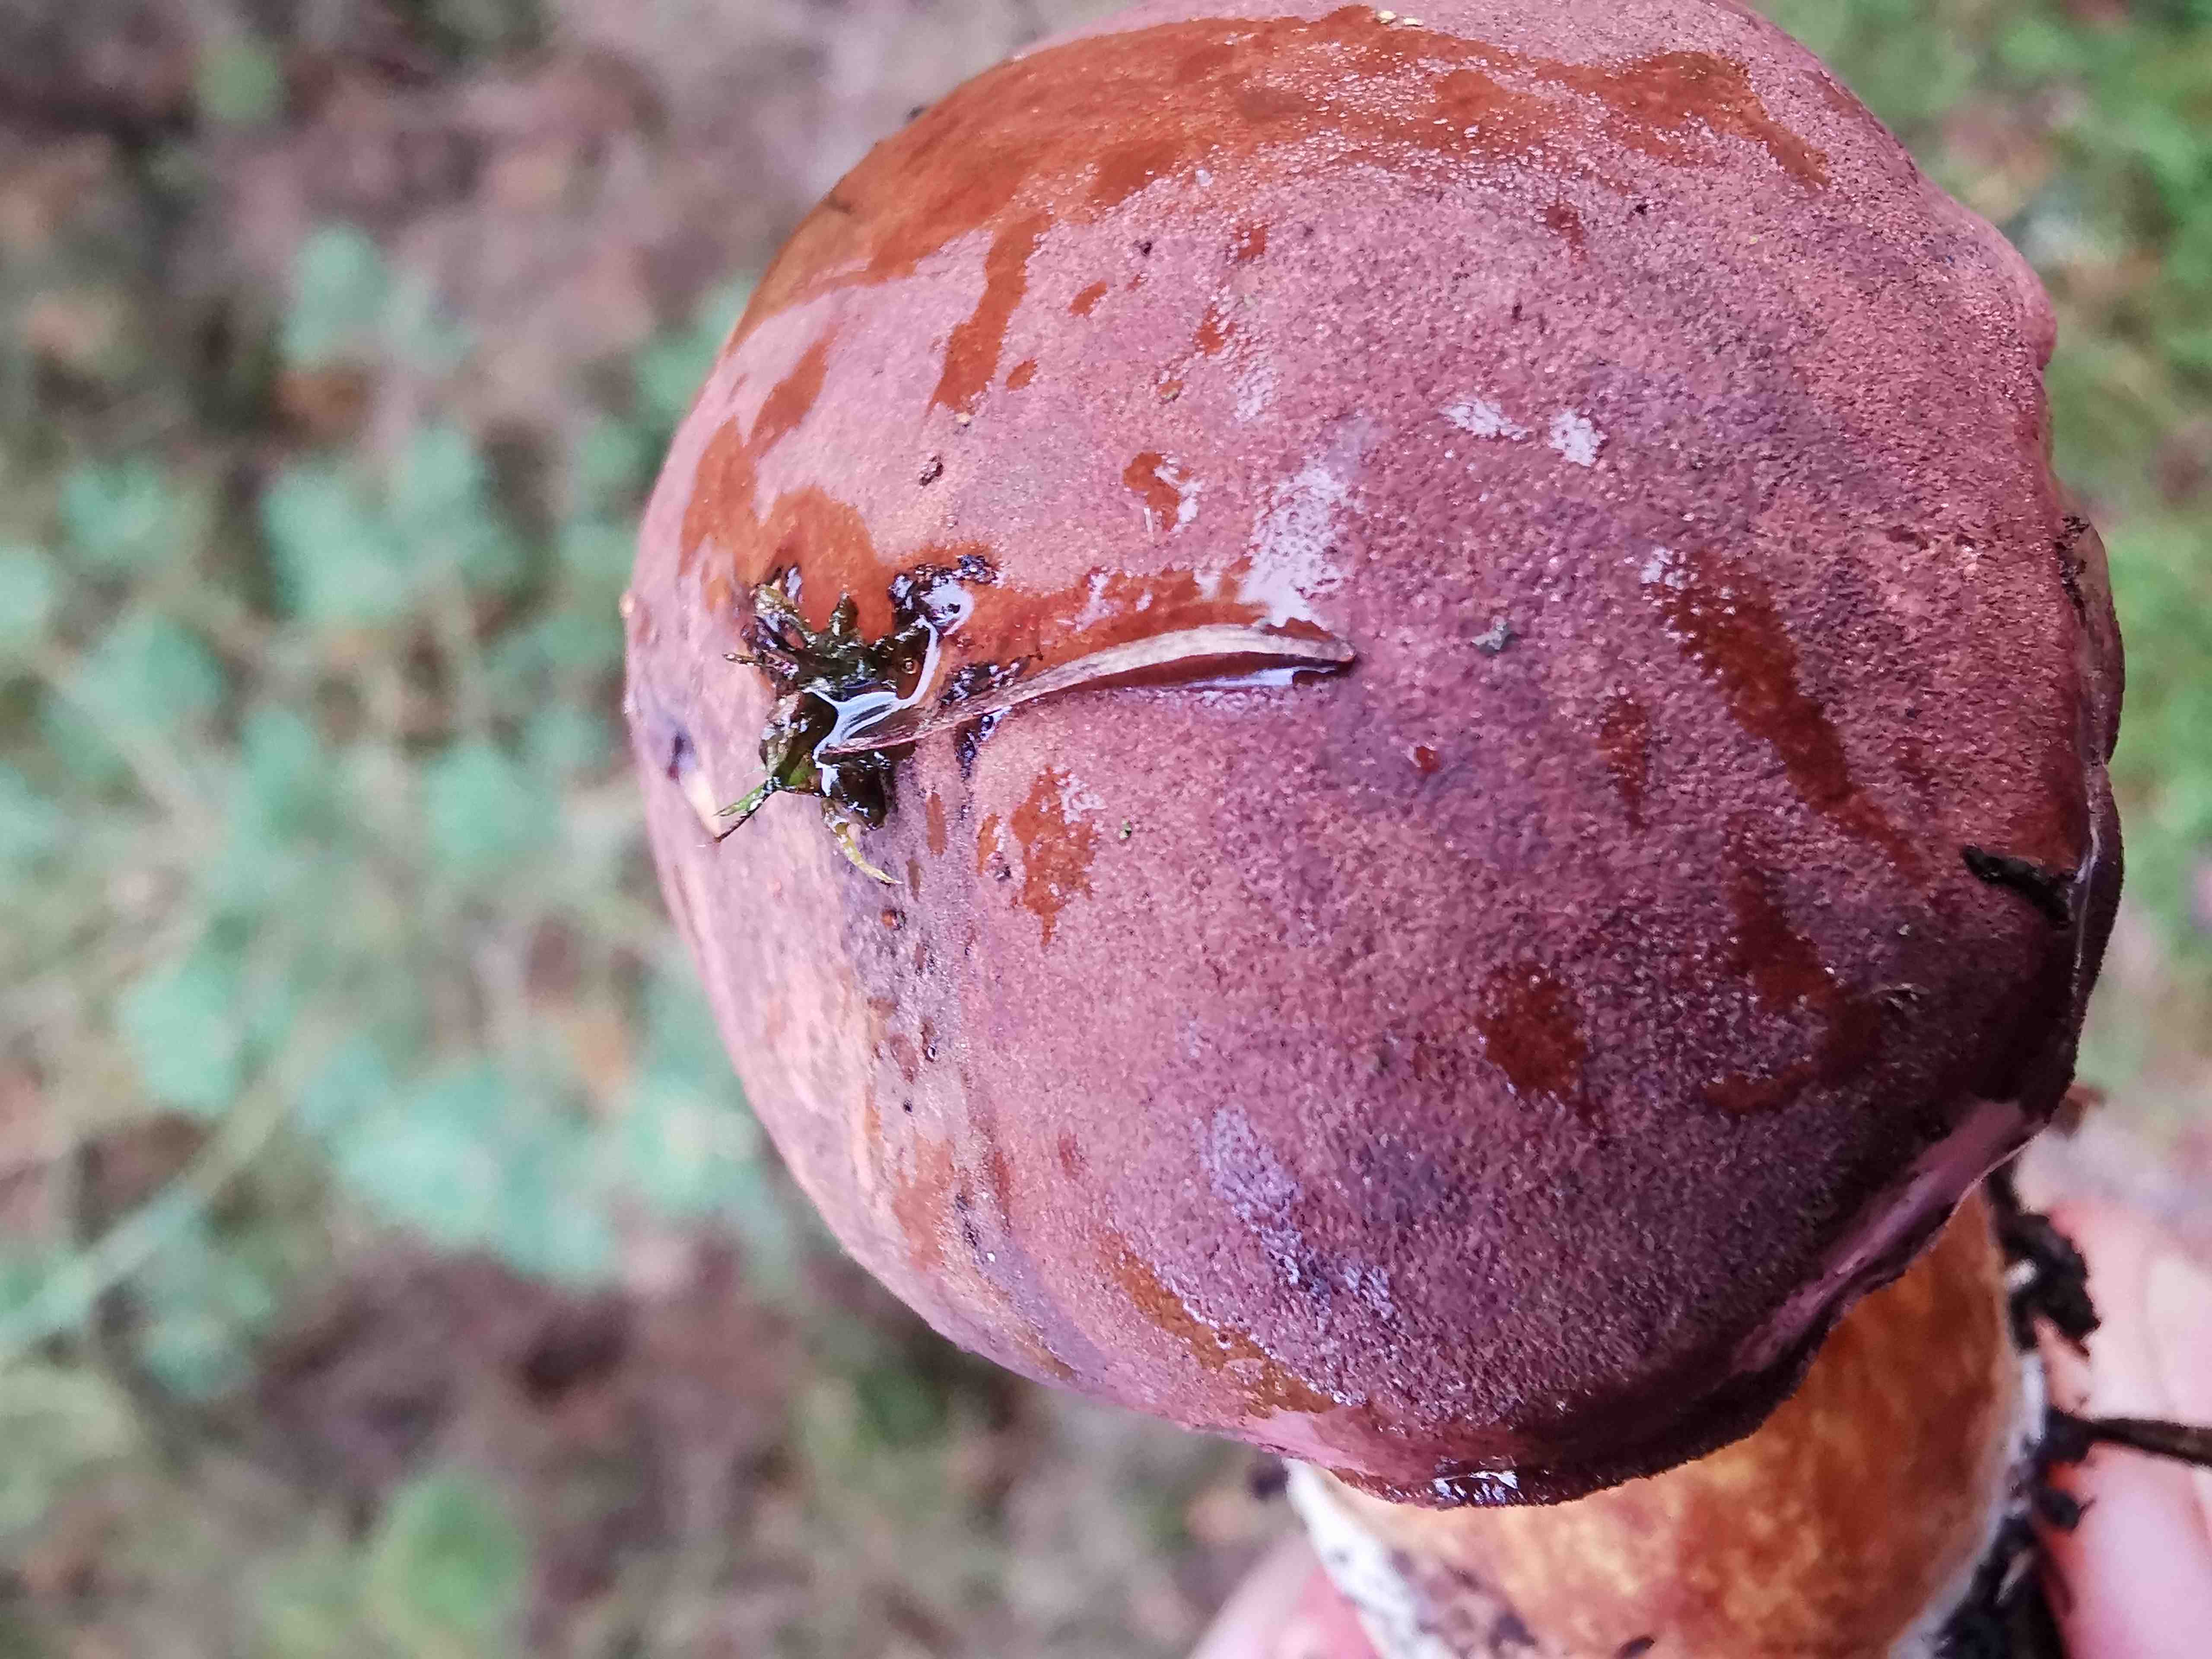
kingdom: Fungi
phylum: Basidiomycota
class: Agaricomycetes
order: Boletales
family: Boletaceae
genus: Boletus
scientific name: Boletus pinophilus
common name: rødbrun rørhat
